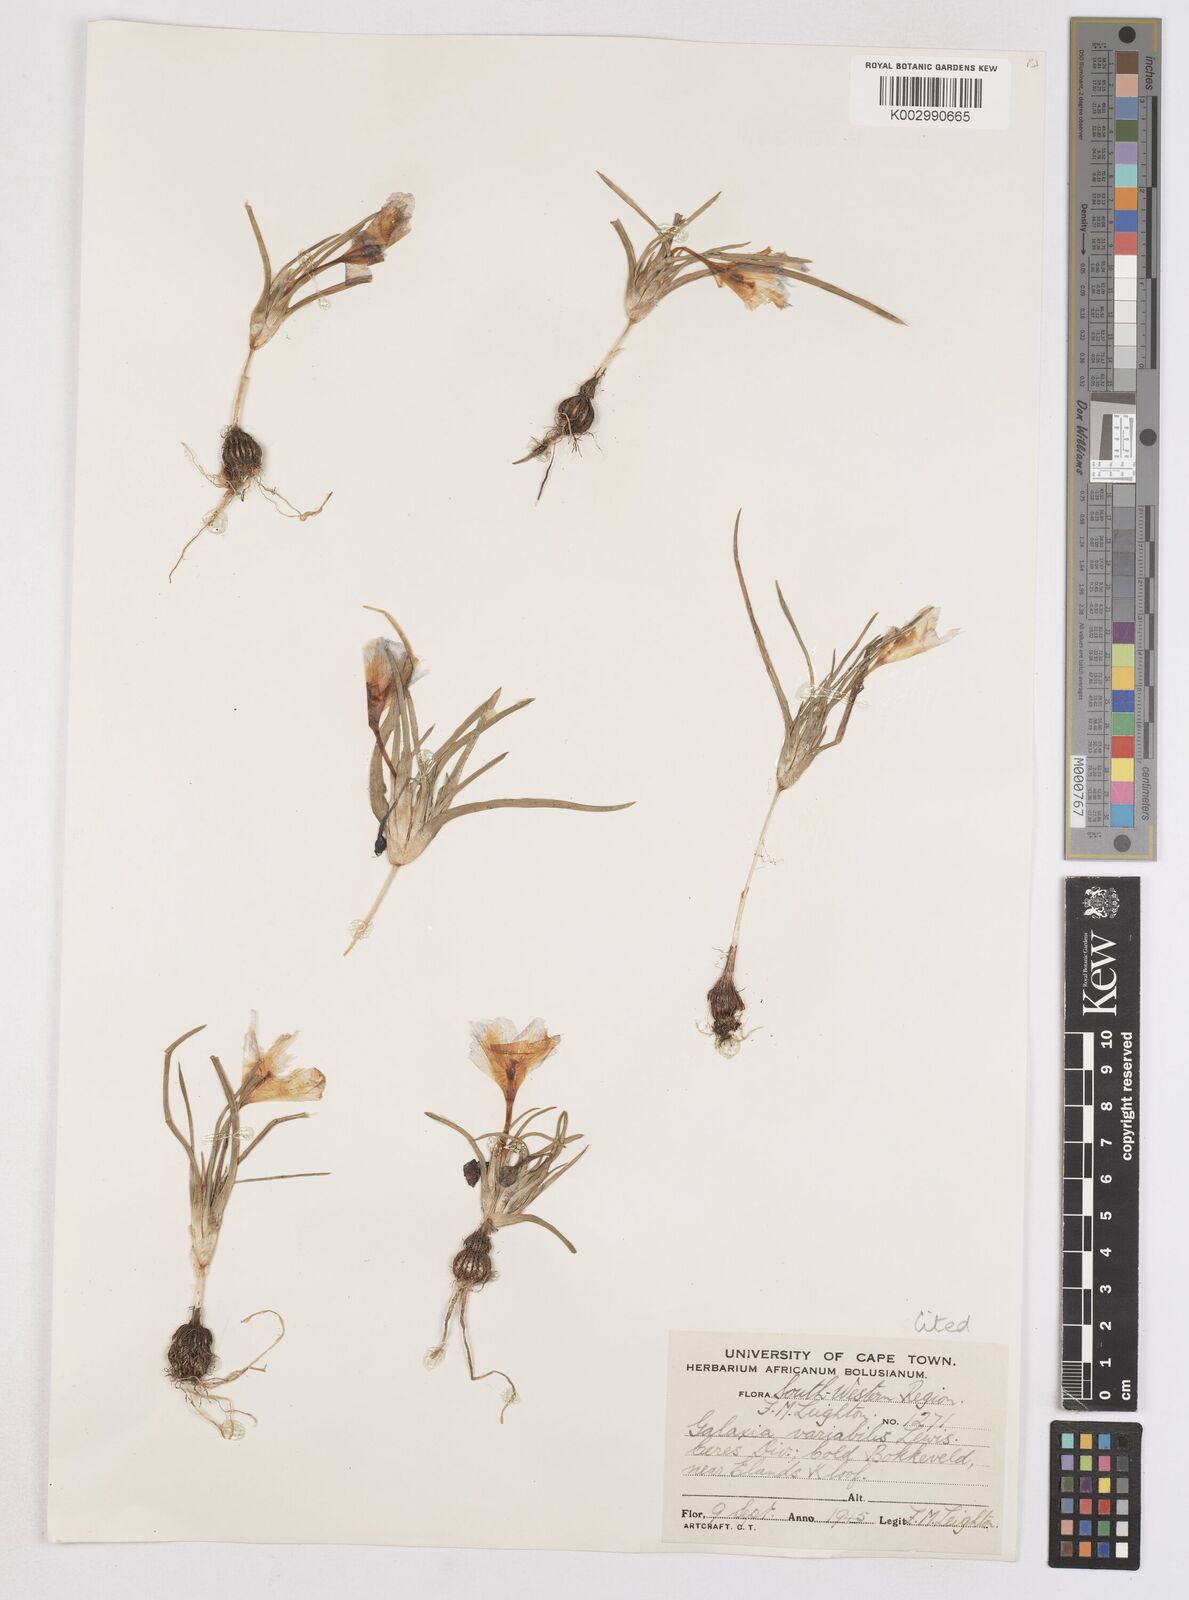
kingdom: Plantae
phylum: Tracheophyta
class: Liliopsida
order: Asparagales
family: Iridaceae
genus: Moraea
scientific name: Moraea variabilis
